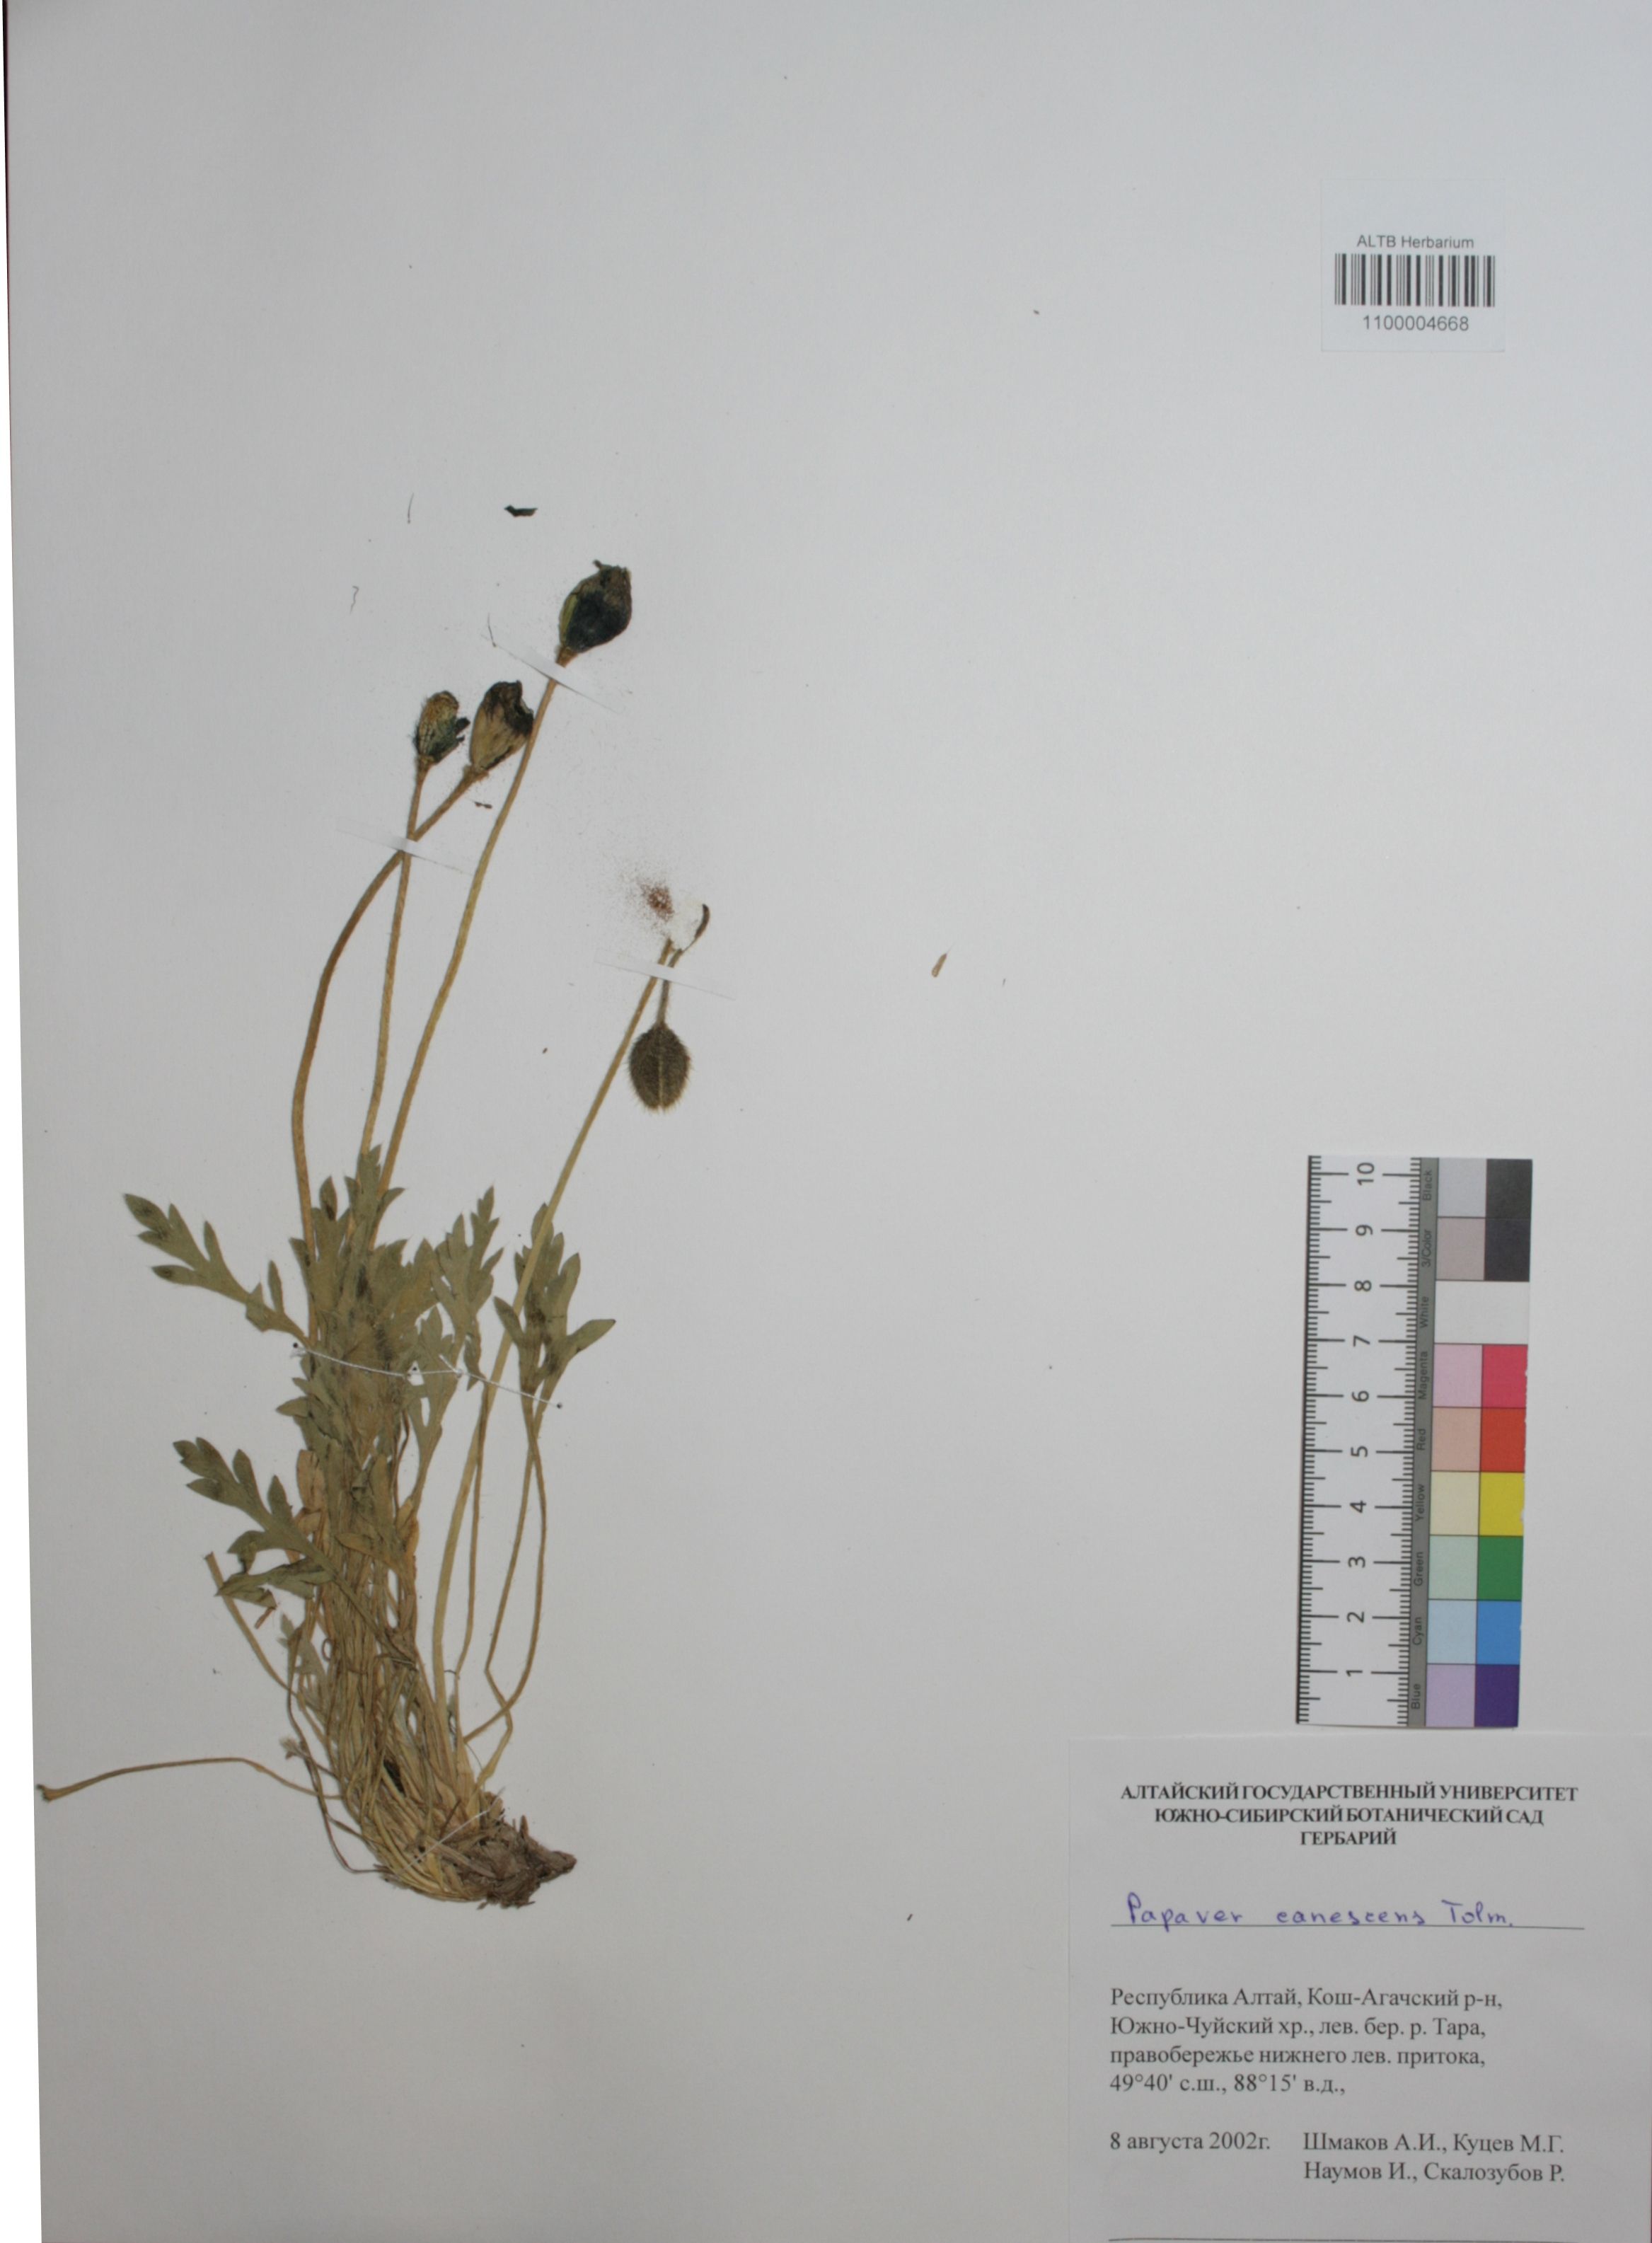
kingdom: Plantae
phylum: Tracheophyta
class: Magnoliopsida
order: Ranunculales
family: Papaveraceae
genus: Papaver
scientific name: Papaver canescens
